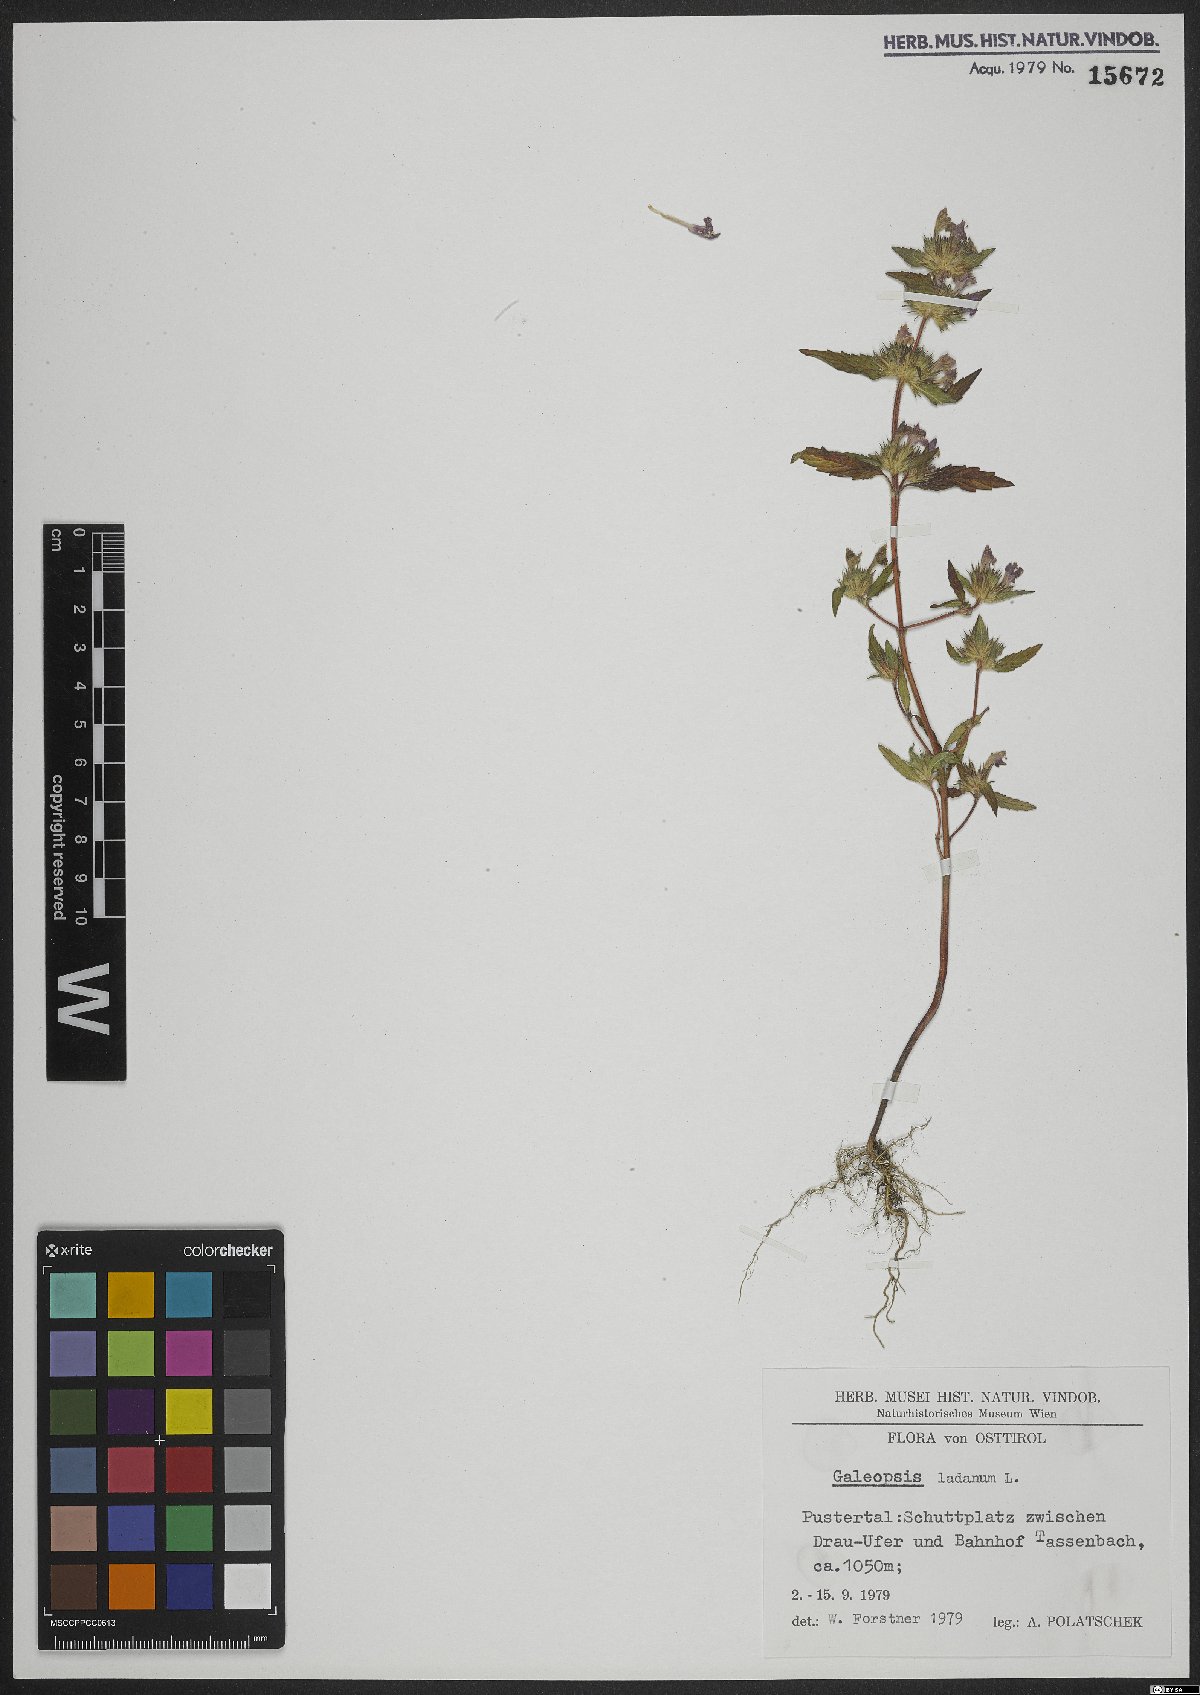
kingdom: Plantae
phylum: Tracheophyta
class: Magnoliopsida
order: Lamiales
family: Lamiaceae
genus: Galeopsis
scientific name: Galeopsis ladanum
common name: Broad-leaved hemp-nettle
